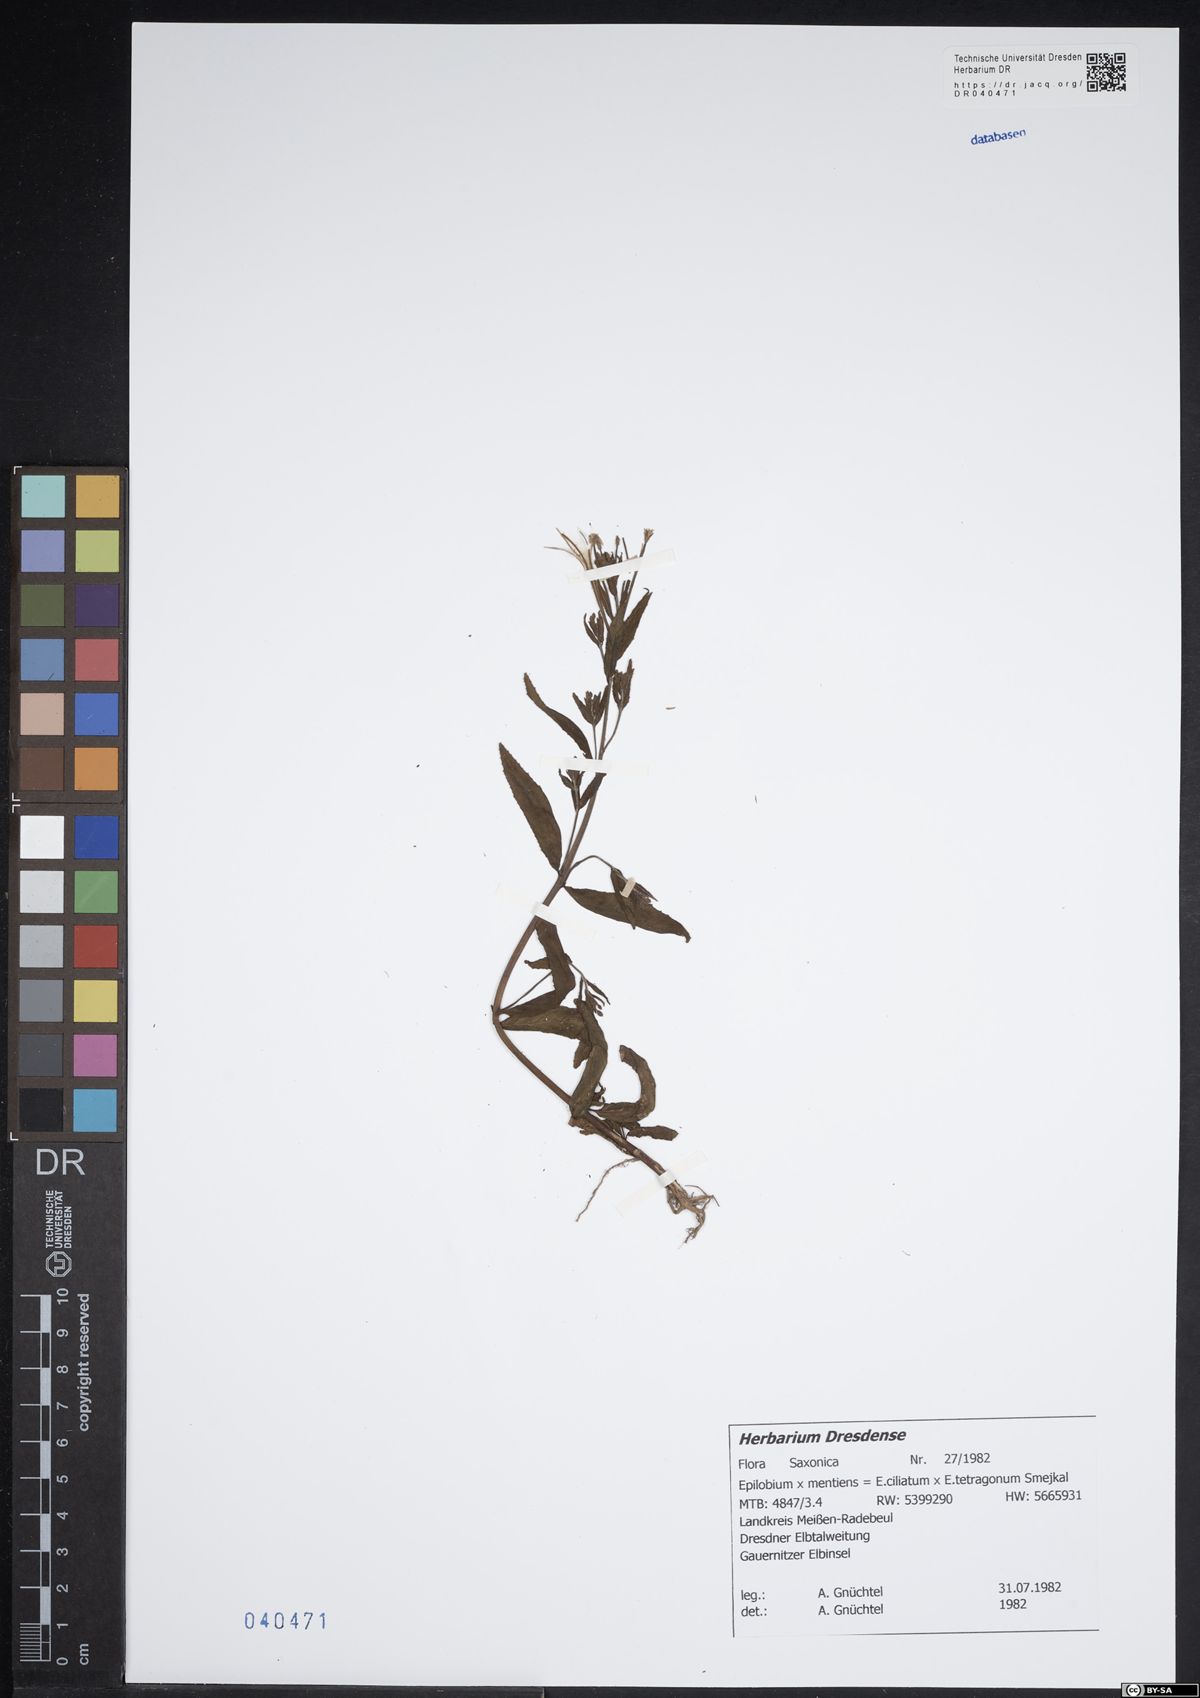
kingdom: Plantae
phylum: Tracheophyta
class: Magnoliopsida
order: Myrtales
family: Onagraceae
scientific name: Onagraceae
